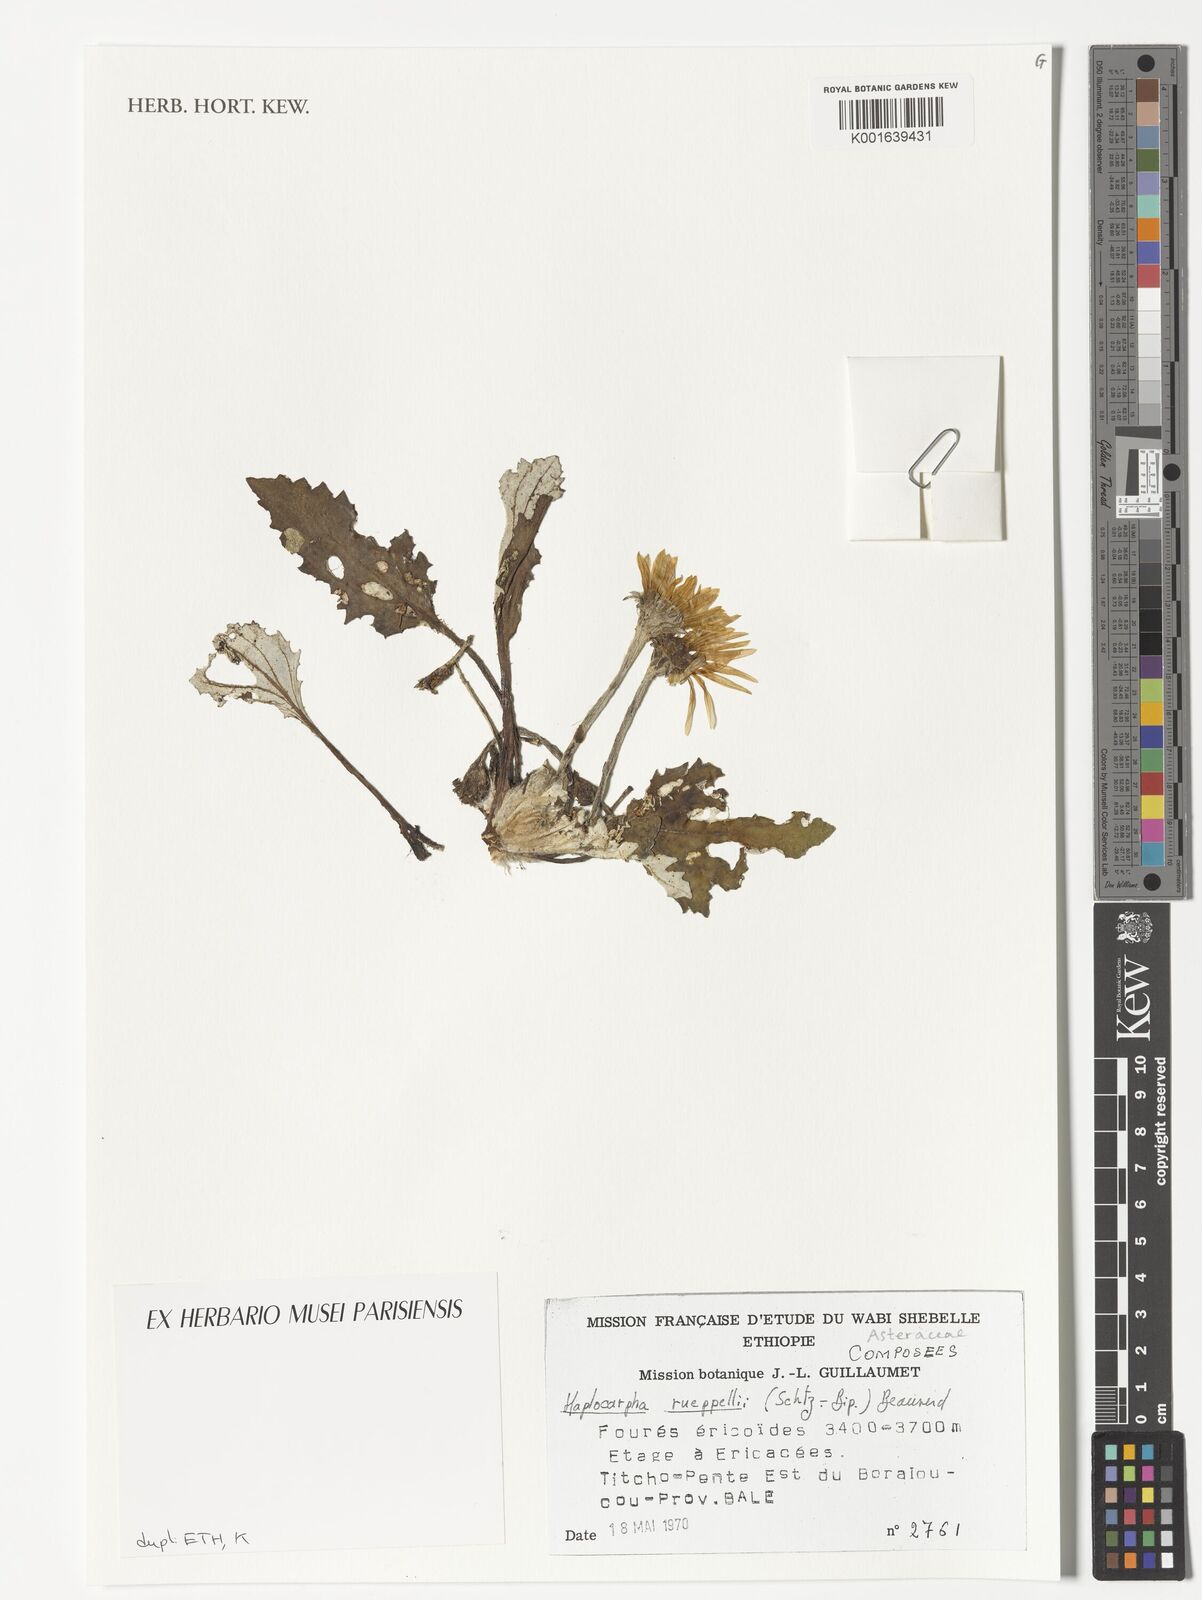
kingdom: Plantae
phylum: Tracheophyta
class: Magnoliopsida
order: Asterales
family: Asteraceae
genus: Haplocarpha
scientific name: Haplocarpha rueppelii
